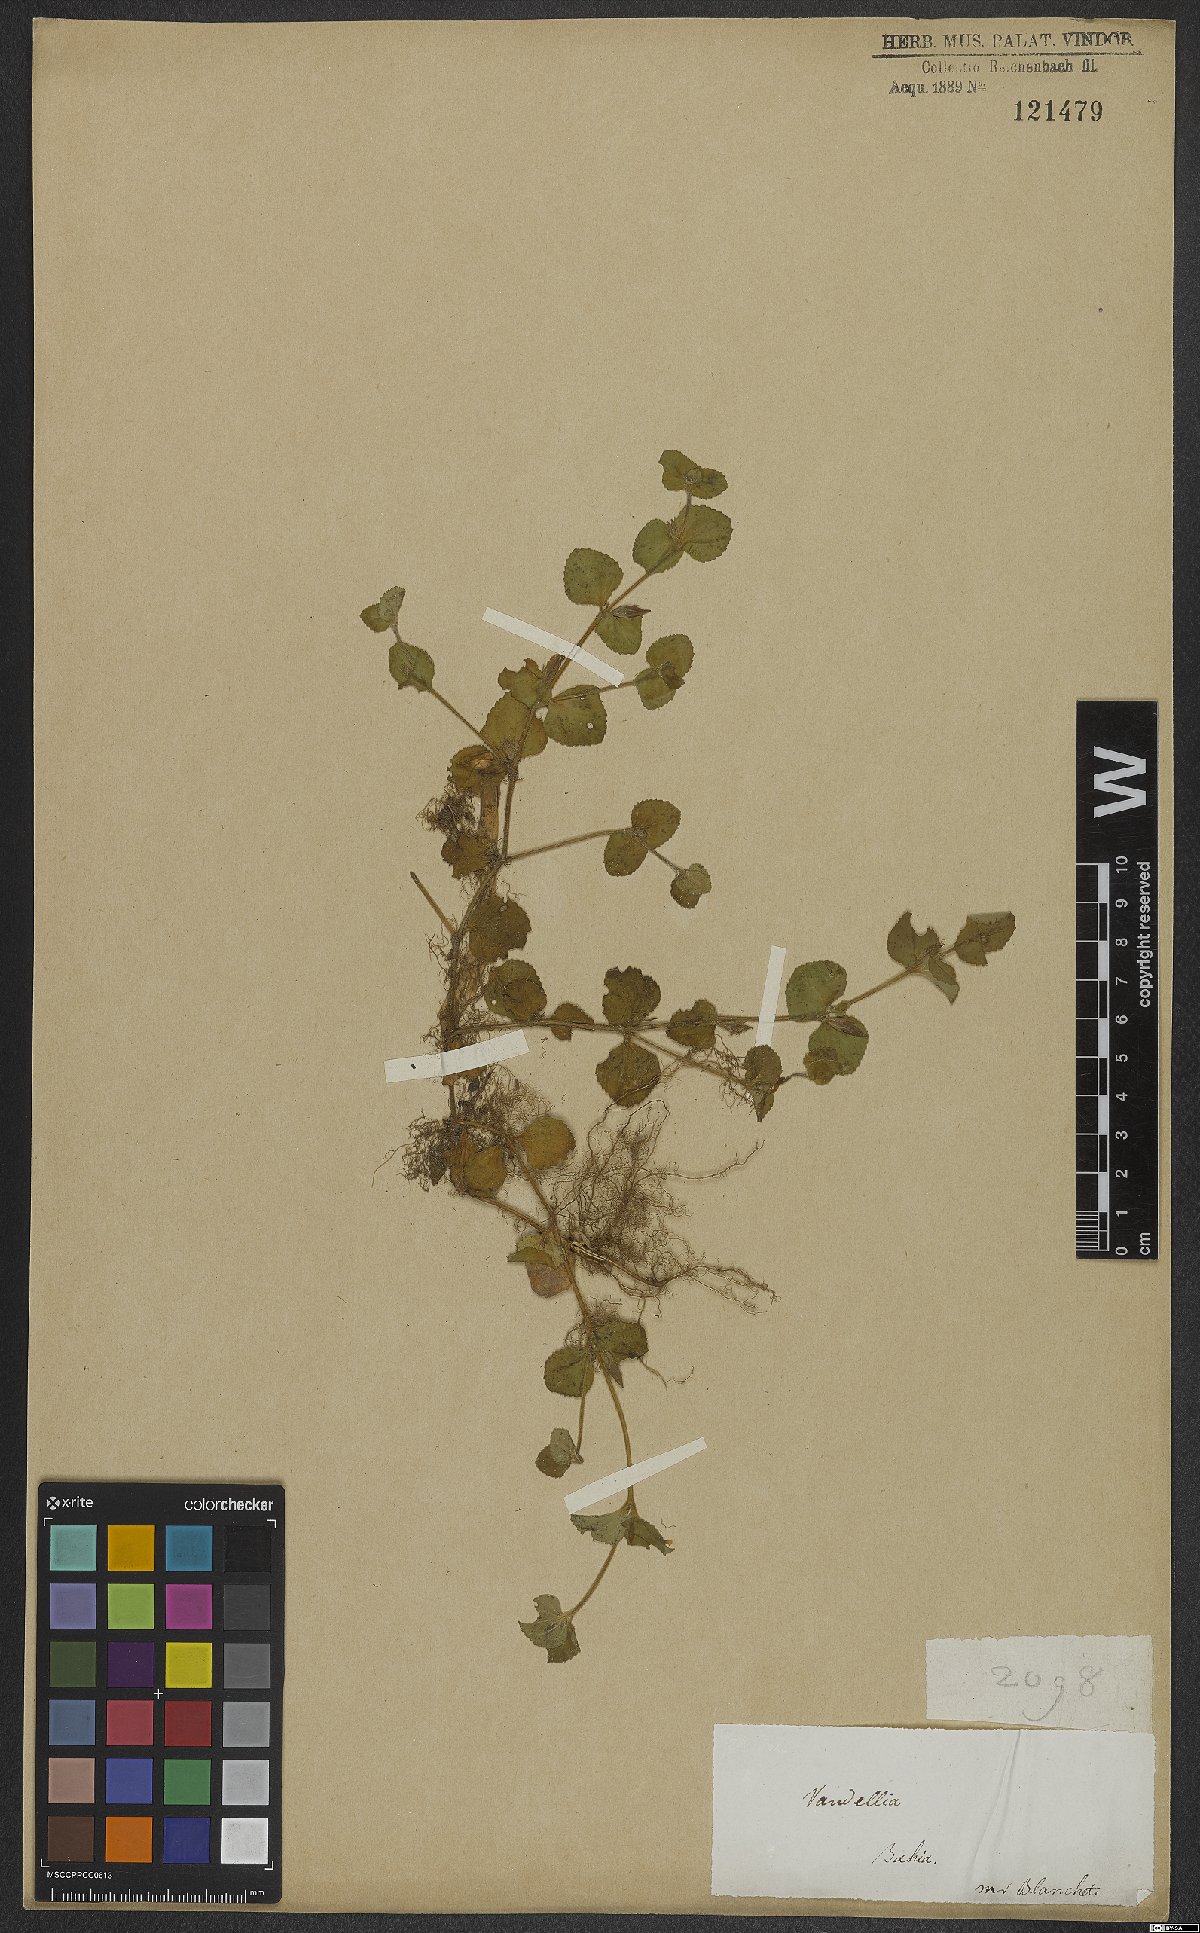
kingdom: Plantae
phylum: Tracheophyta
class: Magnoliopsida
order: Lamiales
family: Linderniaceae
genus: Lindernia
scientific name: Lindernia
